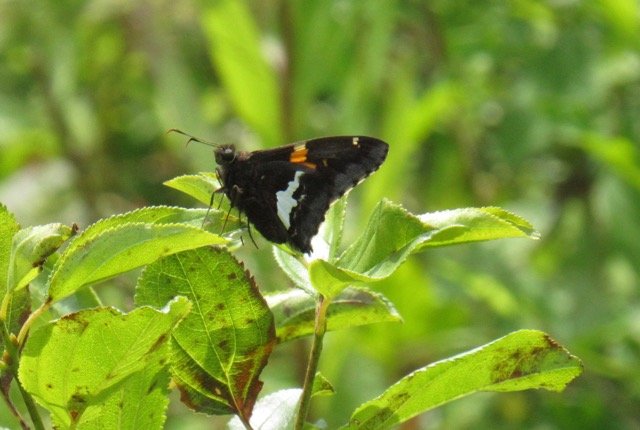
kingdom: Animalia
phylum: Arthropoda
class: Insecta
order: Lepidoptera
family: Hesperiidae
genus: Epargyreus
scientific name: Epargyreus clarus
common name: Silver-spotted Skipper
